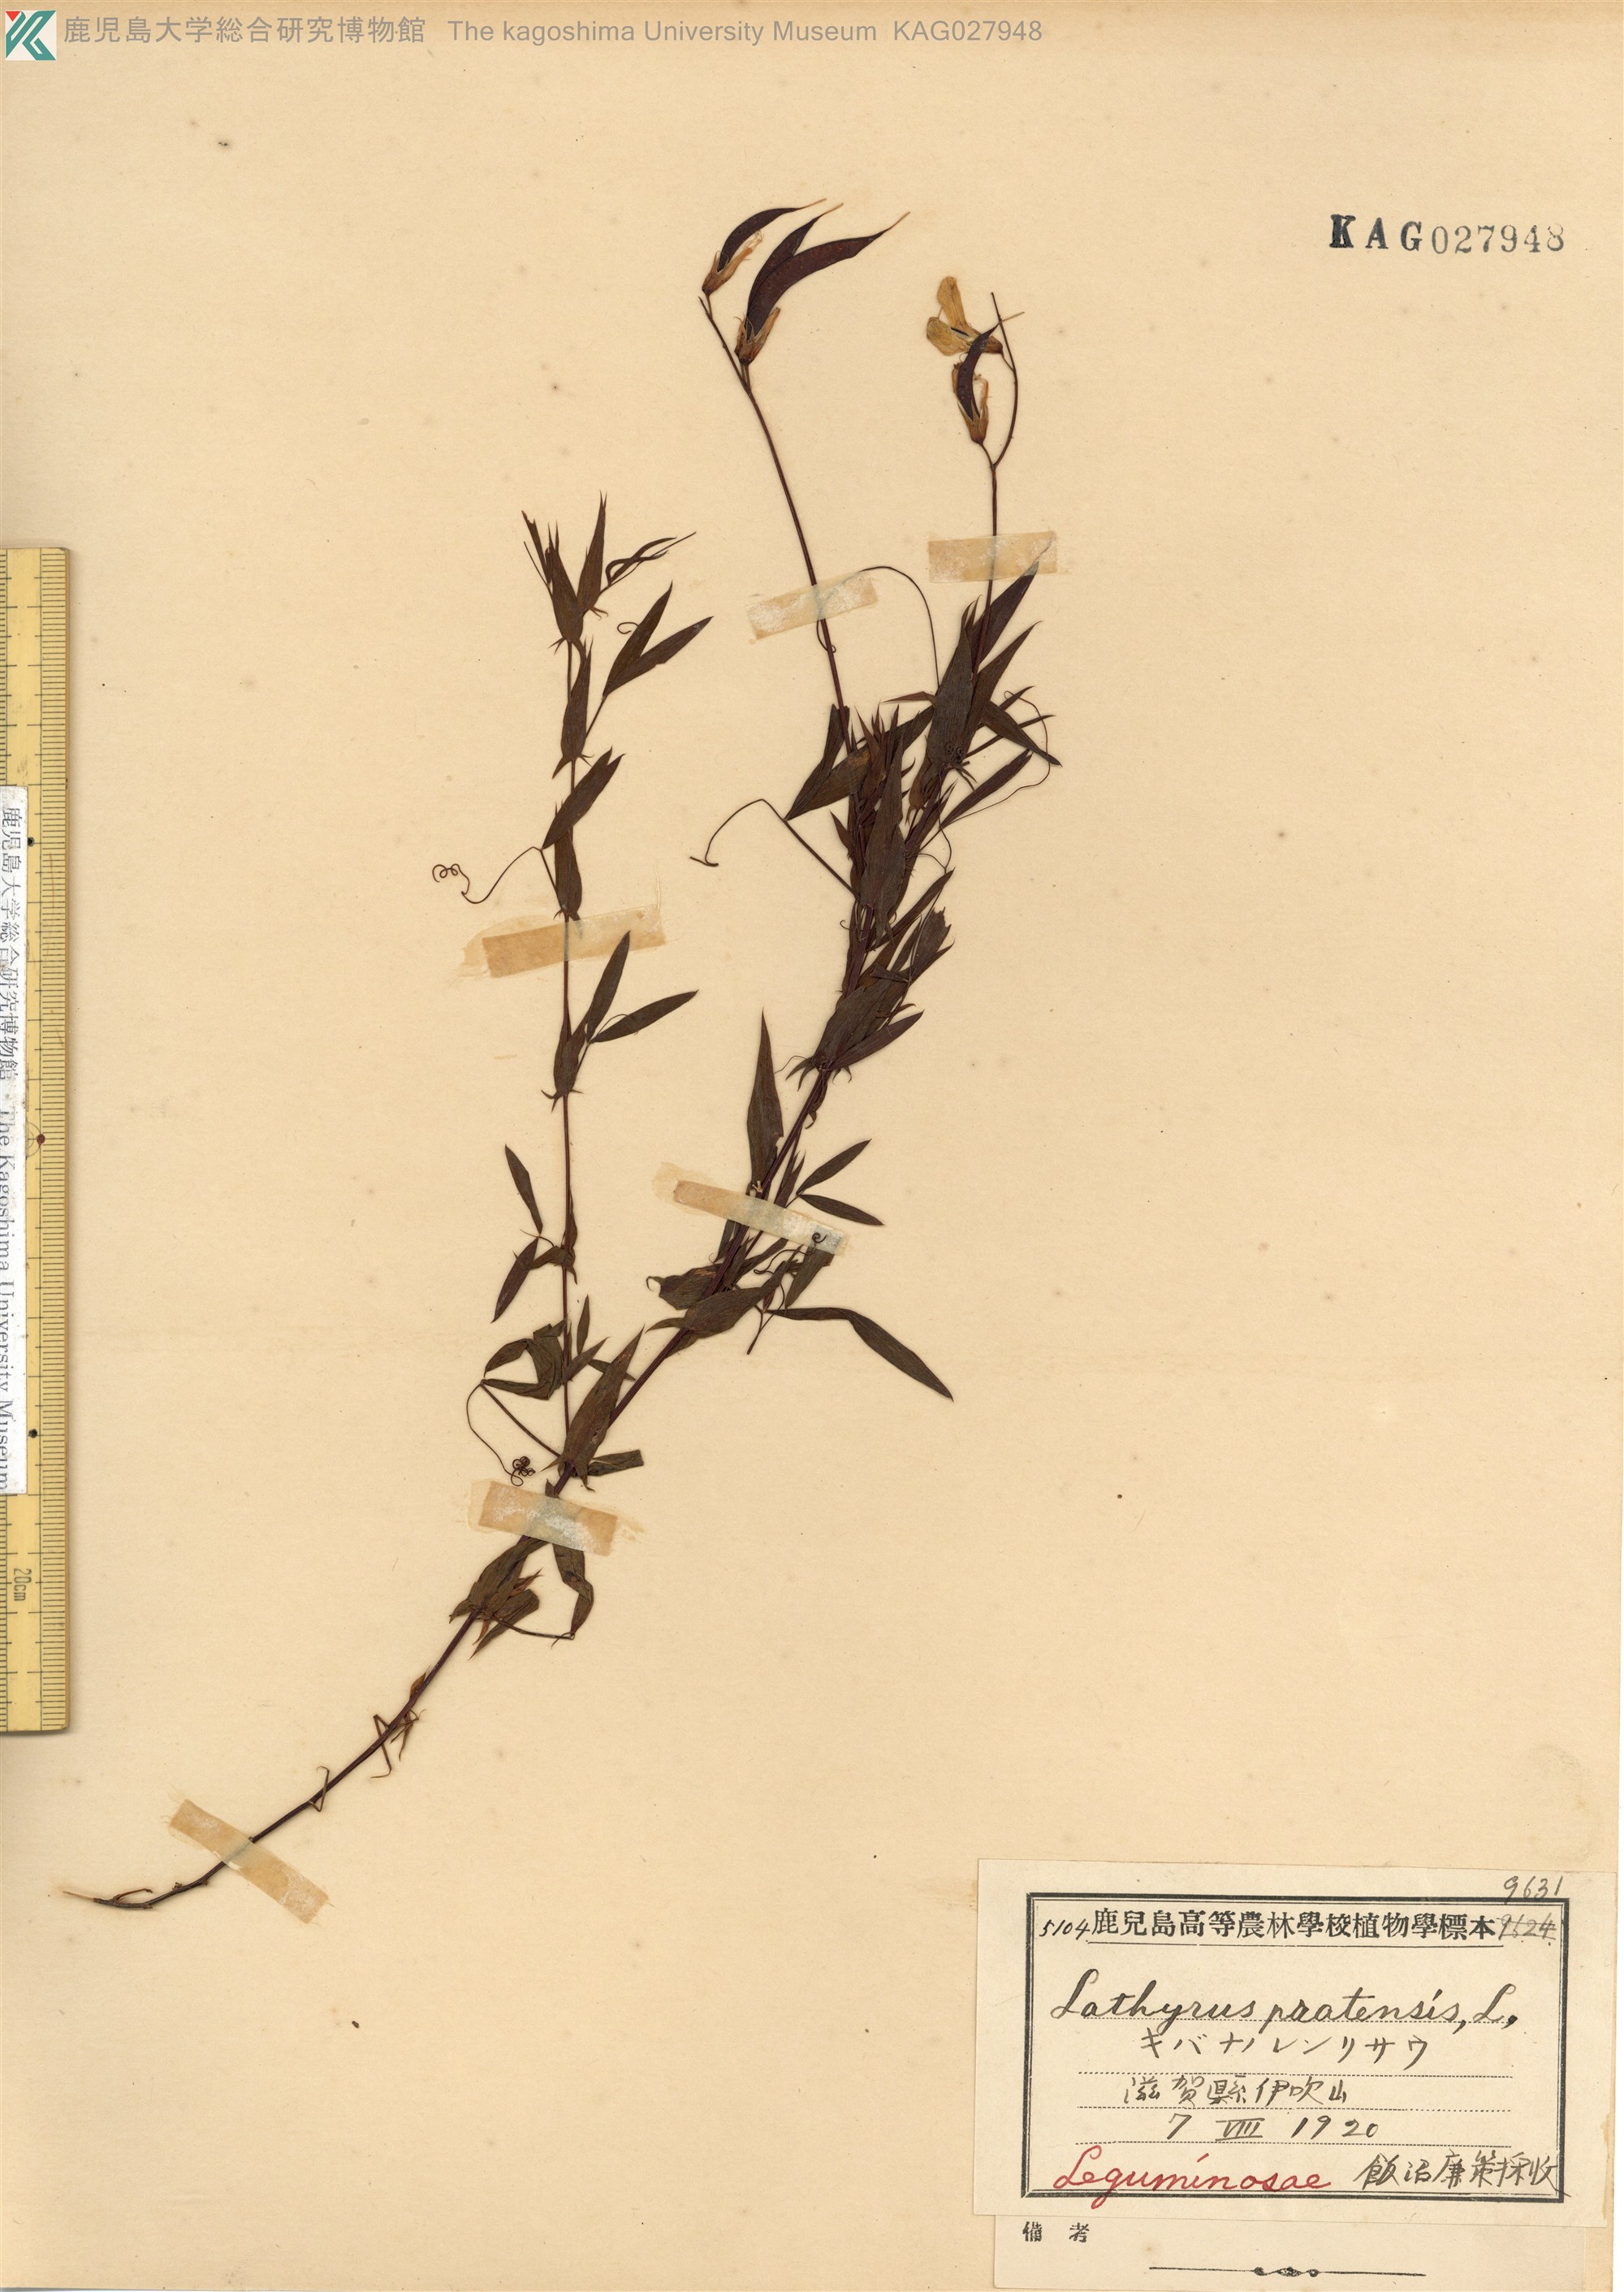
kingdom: Plantae
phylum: Tracheophyta
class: Magnoliopsida
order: Fabales
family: Fabaceae
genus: Lathyrus
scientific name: Lathyrus pratensis
